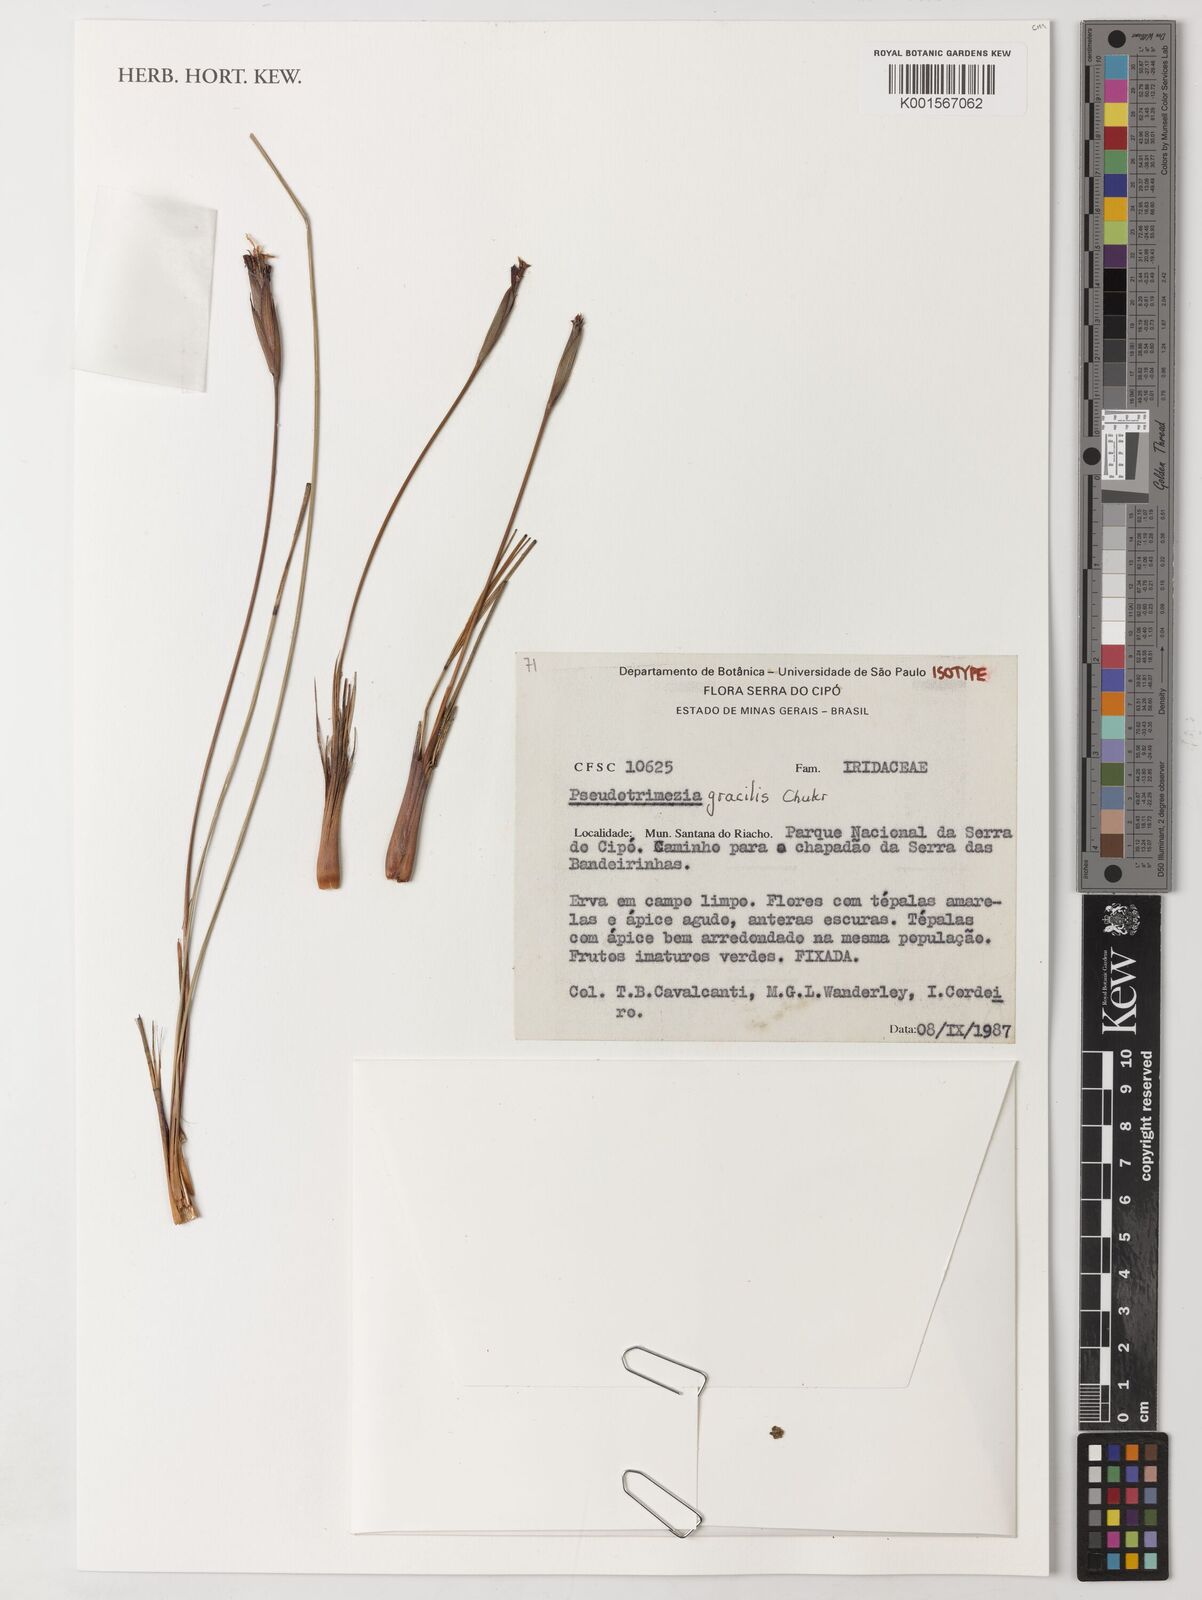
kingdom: Plantae
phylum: Tracheophyta
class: Liliopsida
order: Asparagales
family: Iridaceae
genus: Trimezia
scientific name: Trimezia concolor
